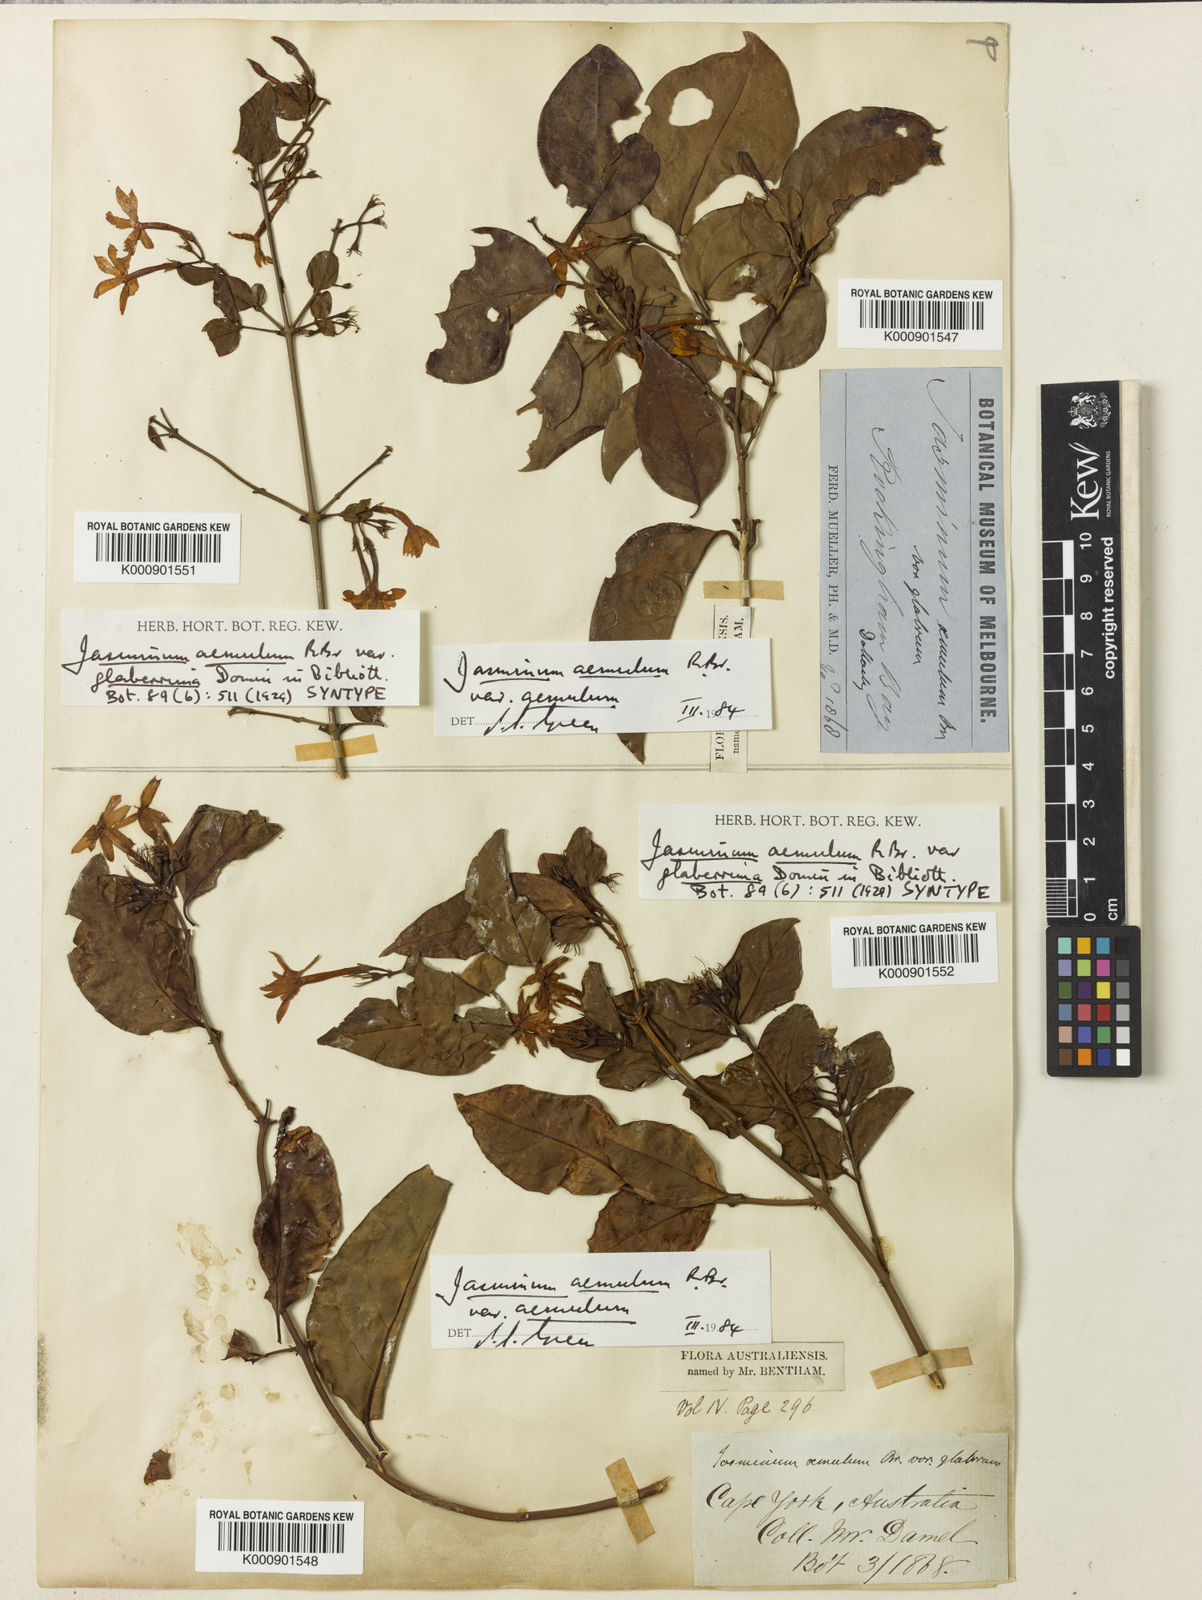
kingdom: Plantae
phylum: Tracheophyta
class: Magnoliopsida
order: Lamiales
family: Oleaceae
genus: Jasminum
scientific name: Jasminum
